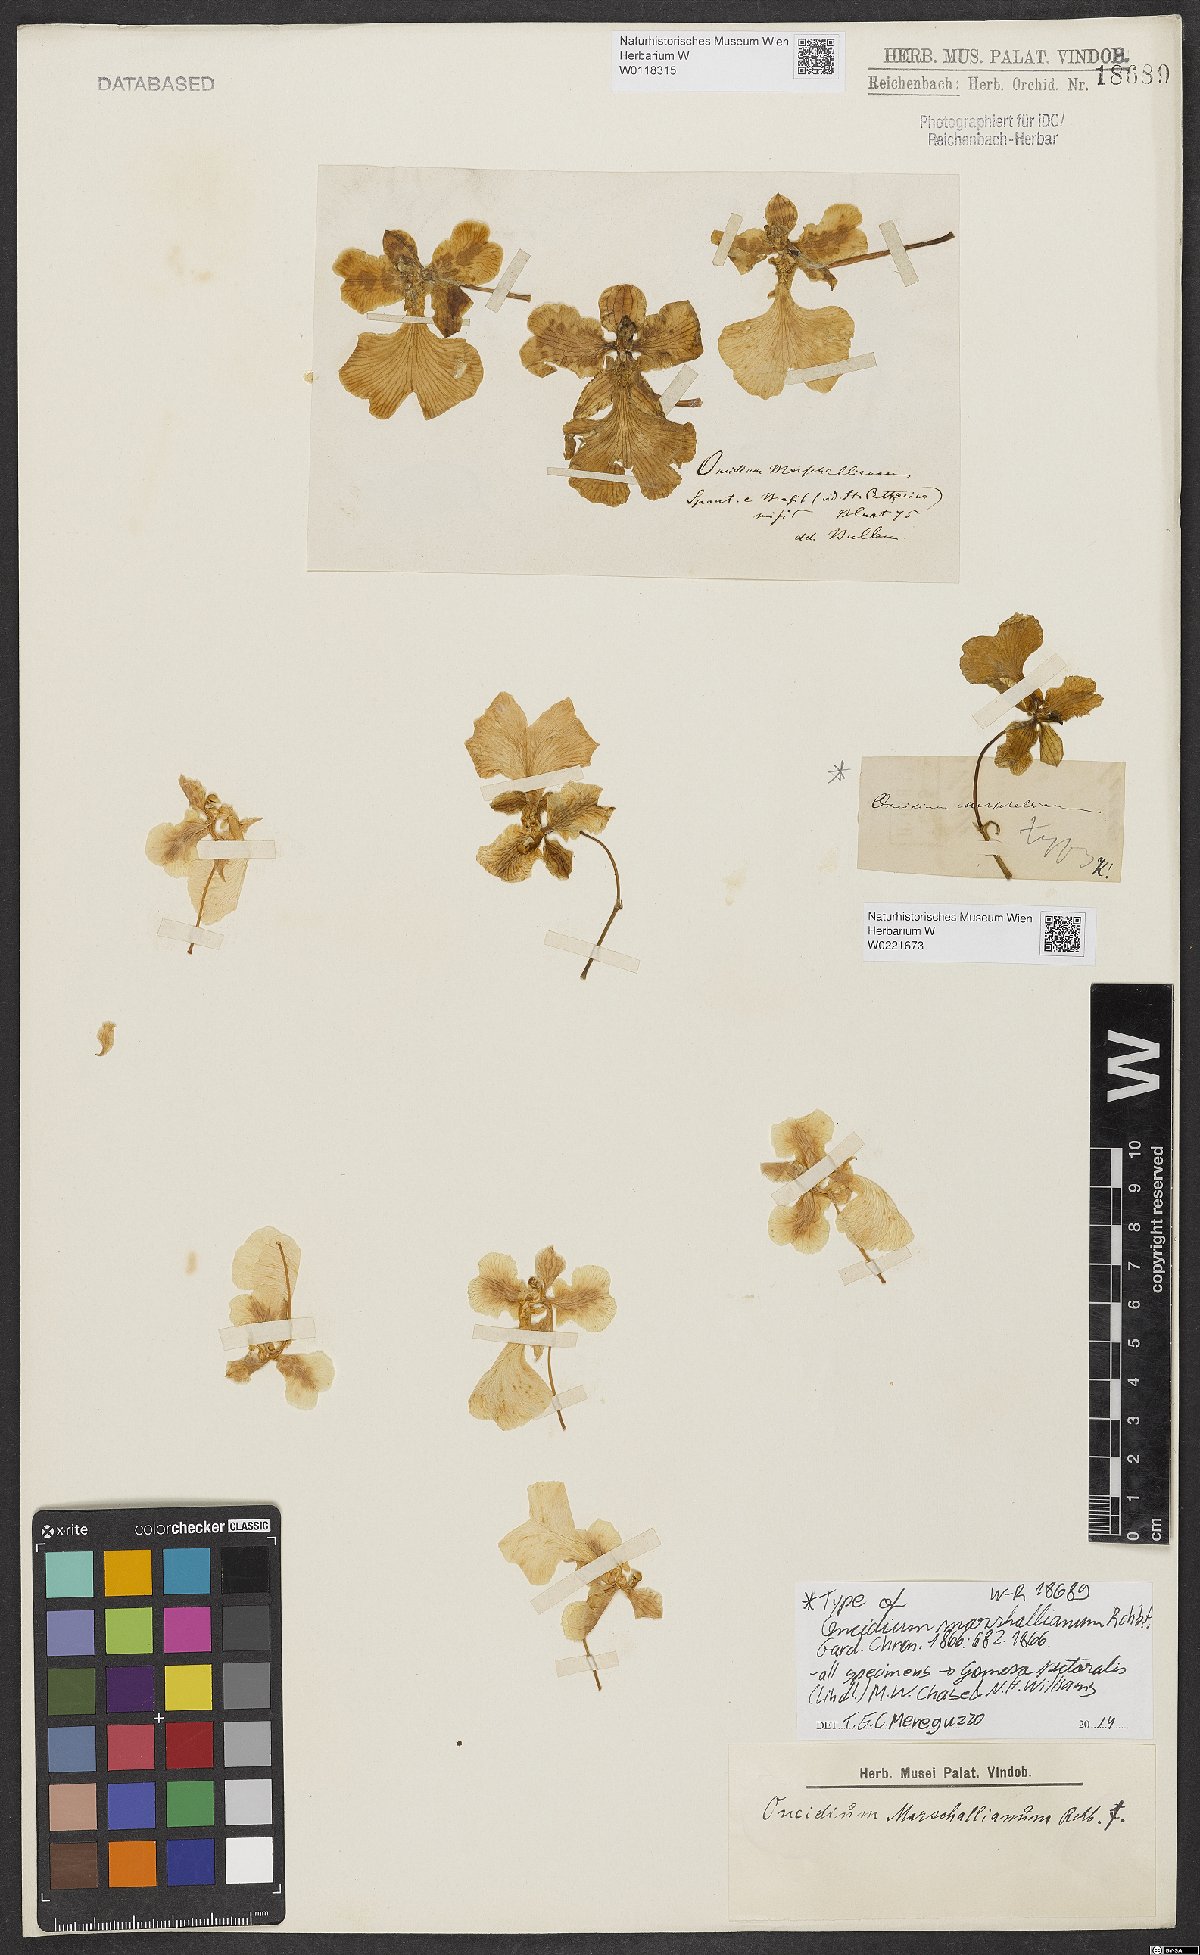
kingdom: Plantae
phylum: Tracheophyta
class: Liliopsida
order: Asparagales
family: Orchidaceae
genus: Gomesa
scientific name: Gomesa marshalliana
